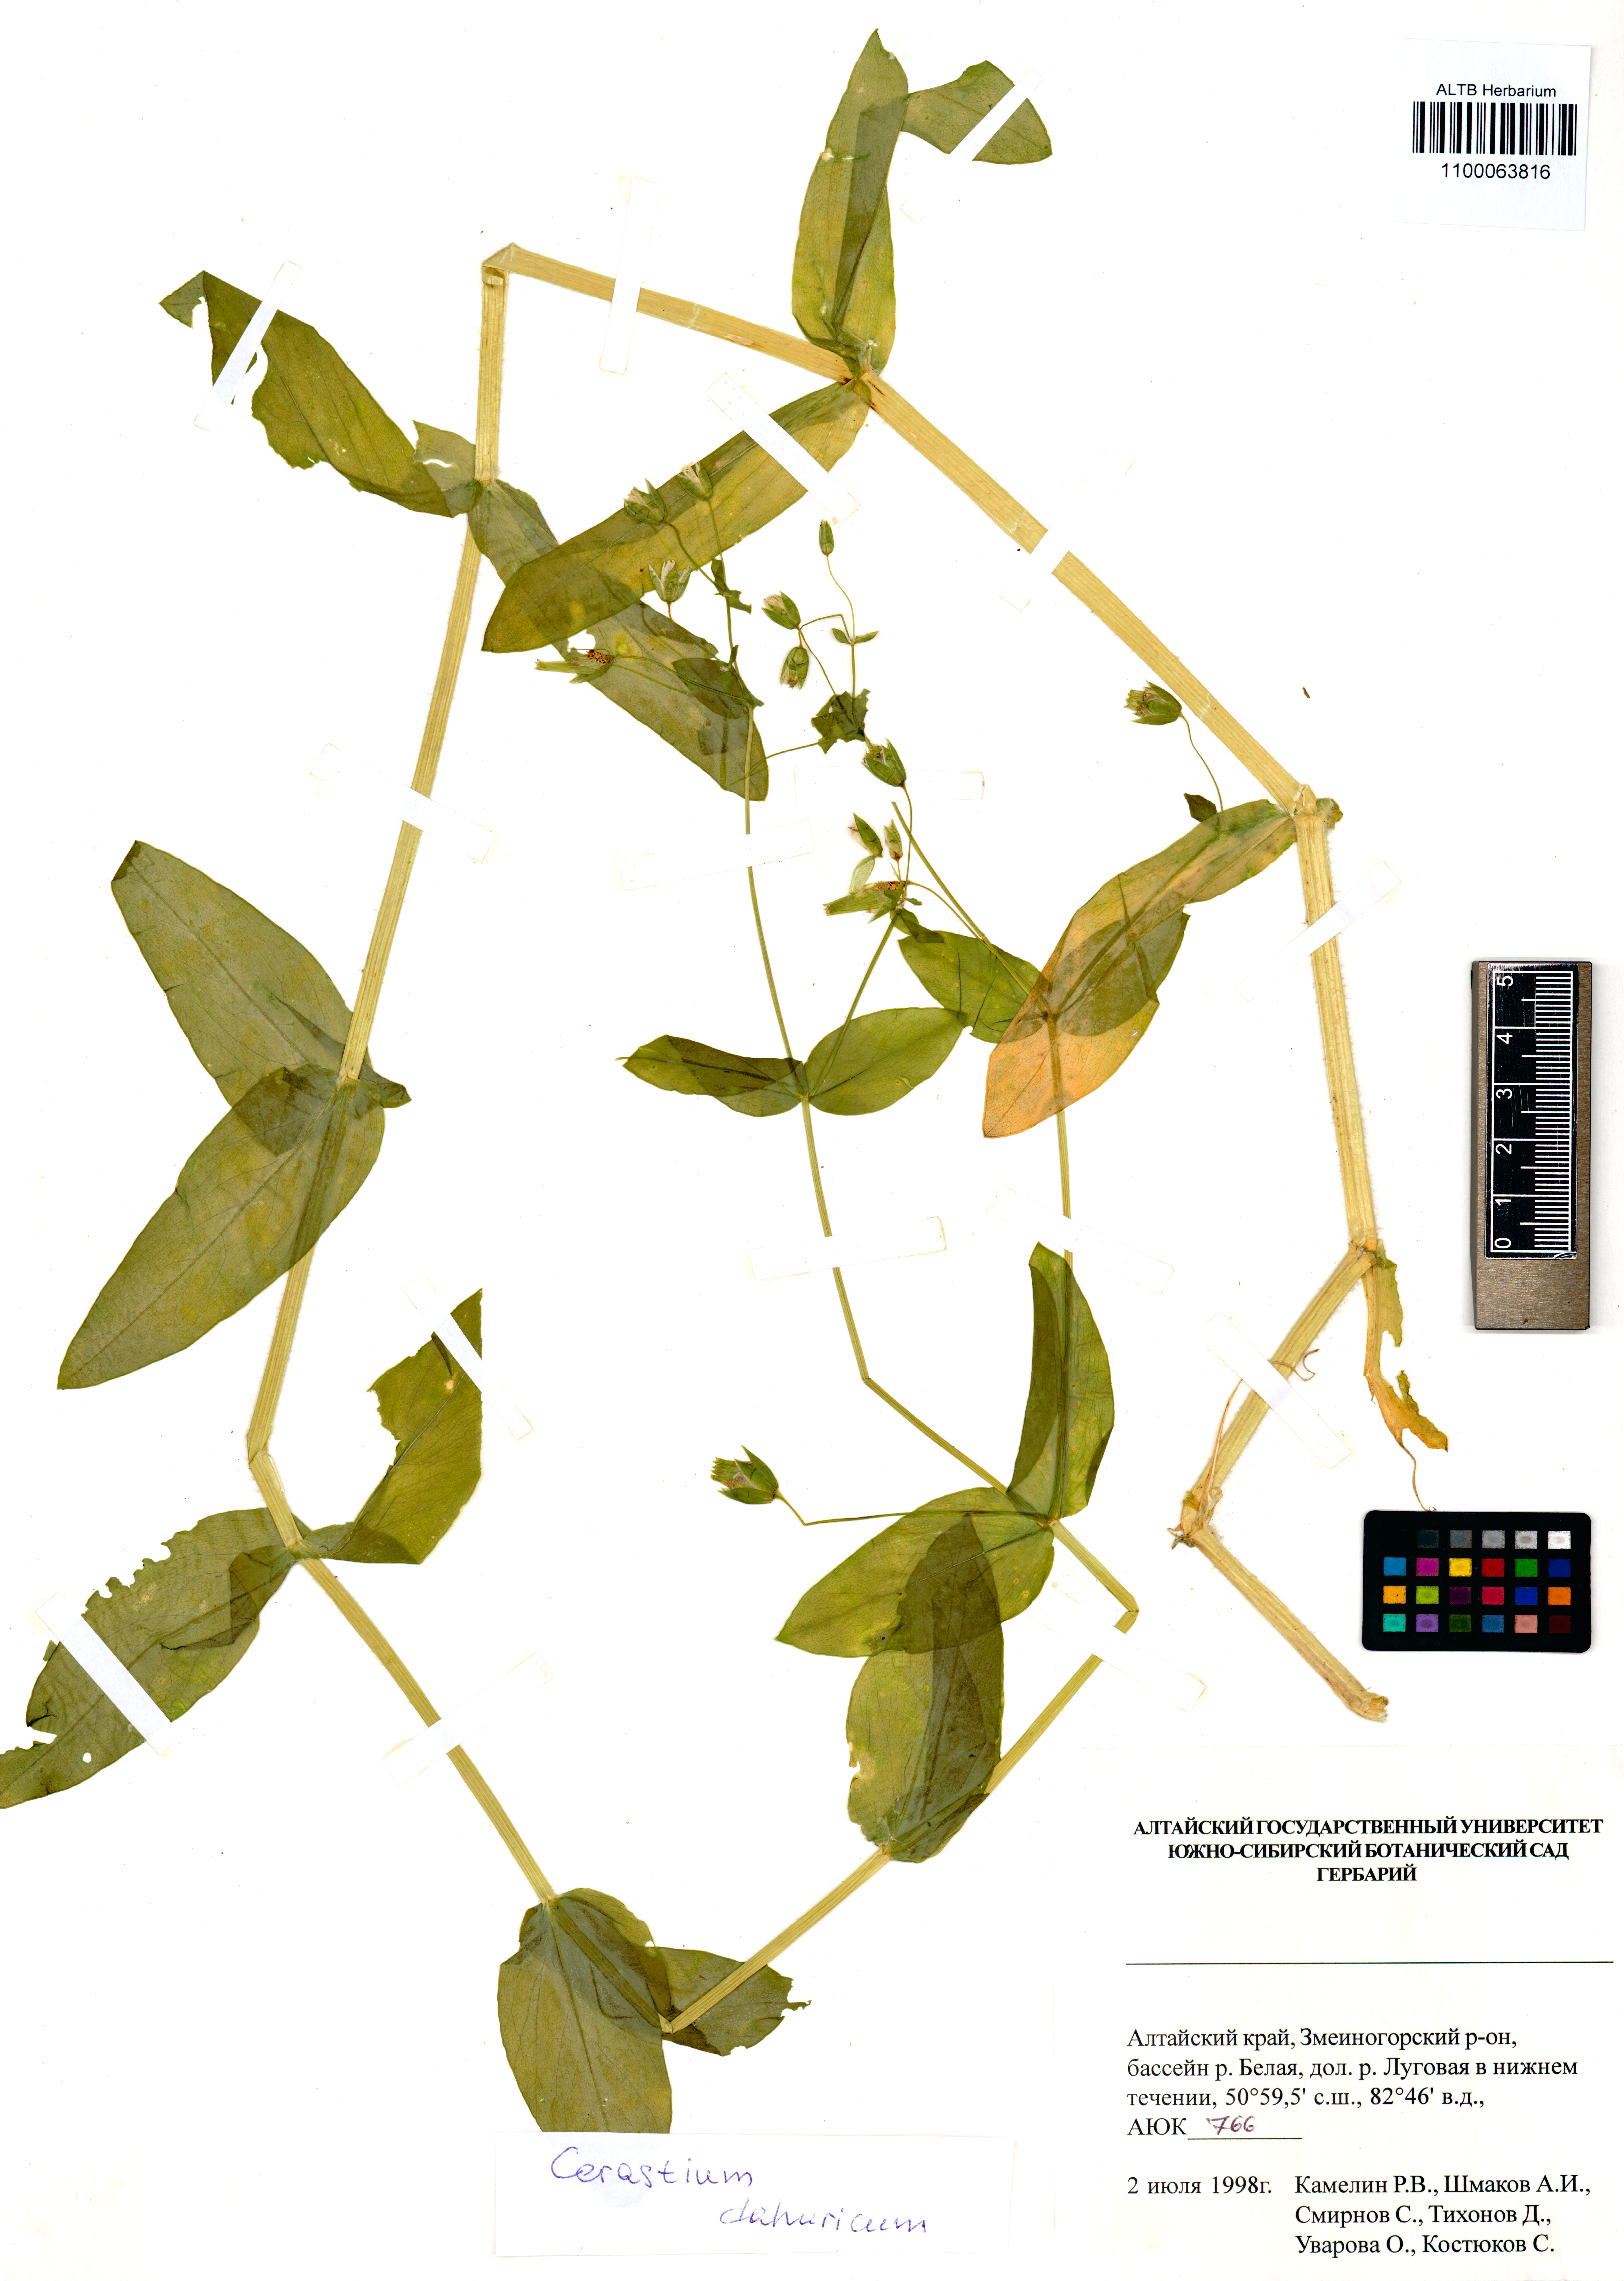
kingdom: Plantae
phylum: Tracheophyta
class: Magnoliopsida
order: Caryophyllales
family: Caryophyllaceae
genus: Dichodon
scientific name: Dichodon davuricum
